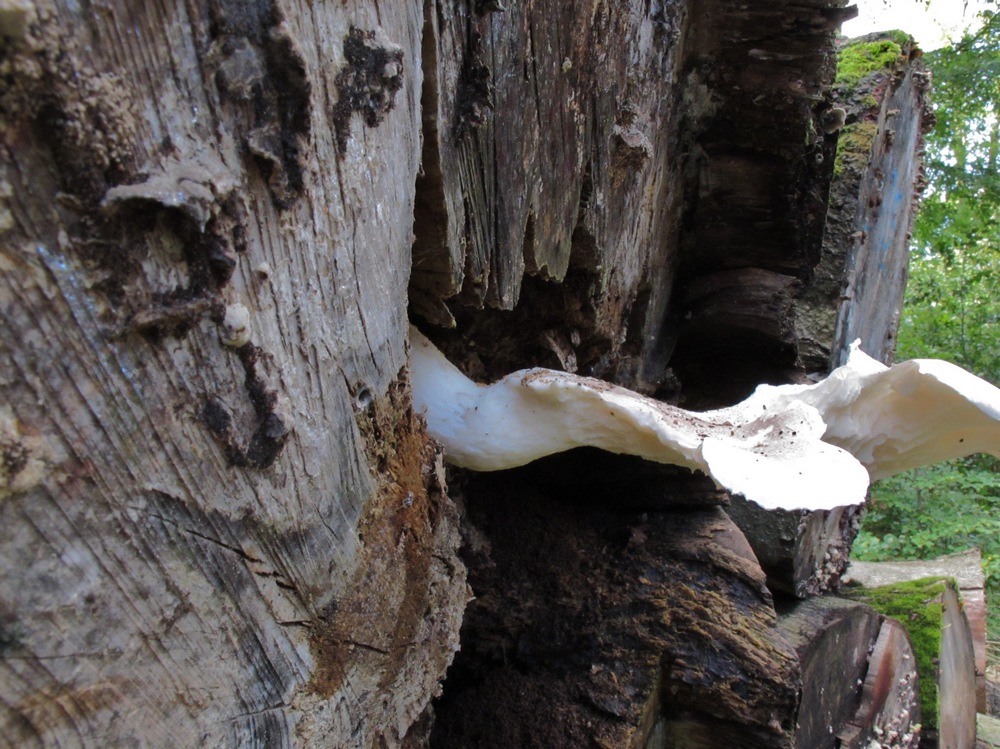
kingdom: Fungi
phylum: Basidiomycota
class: Agaricomycetes
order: Agaricales
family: Pleurotaceae
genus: Pleurotus
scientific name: Pleurotus dryinus
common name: korkagtig østershat
